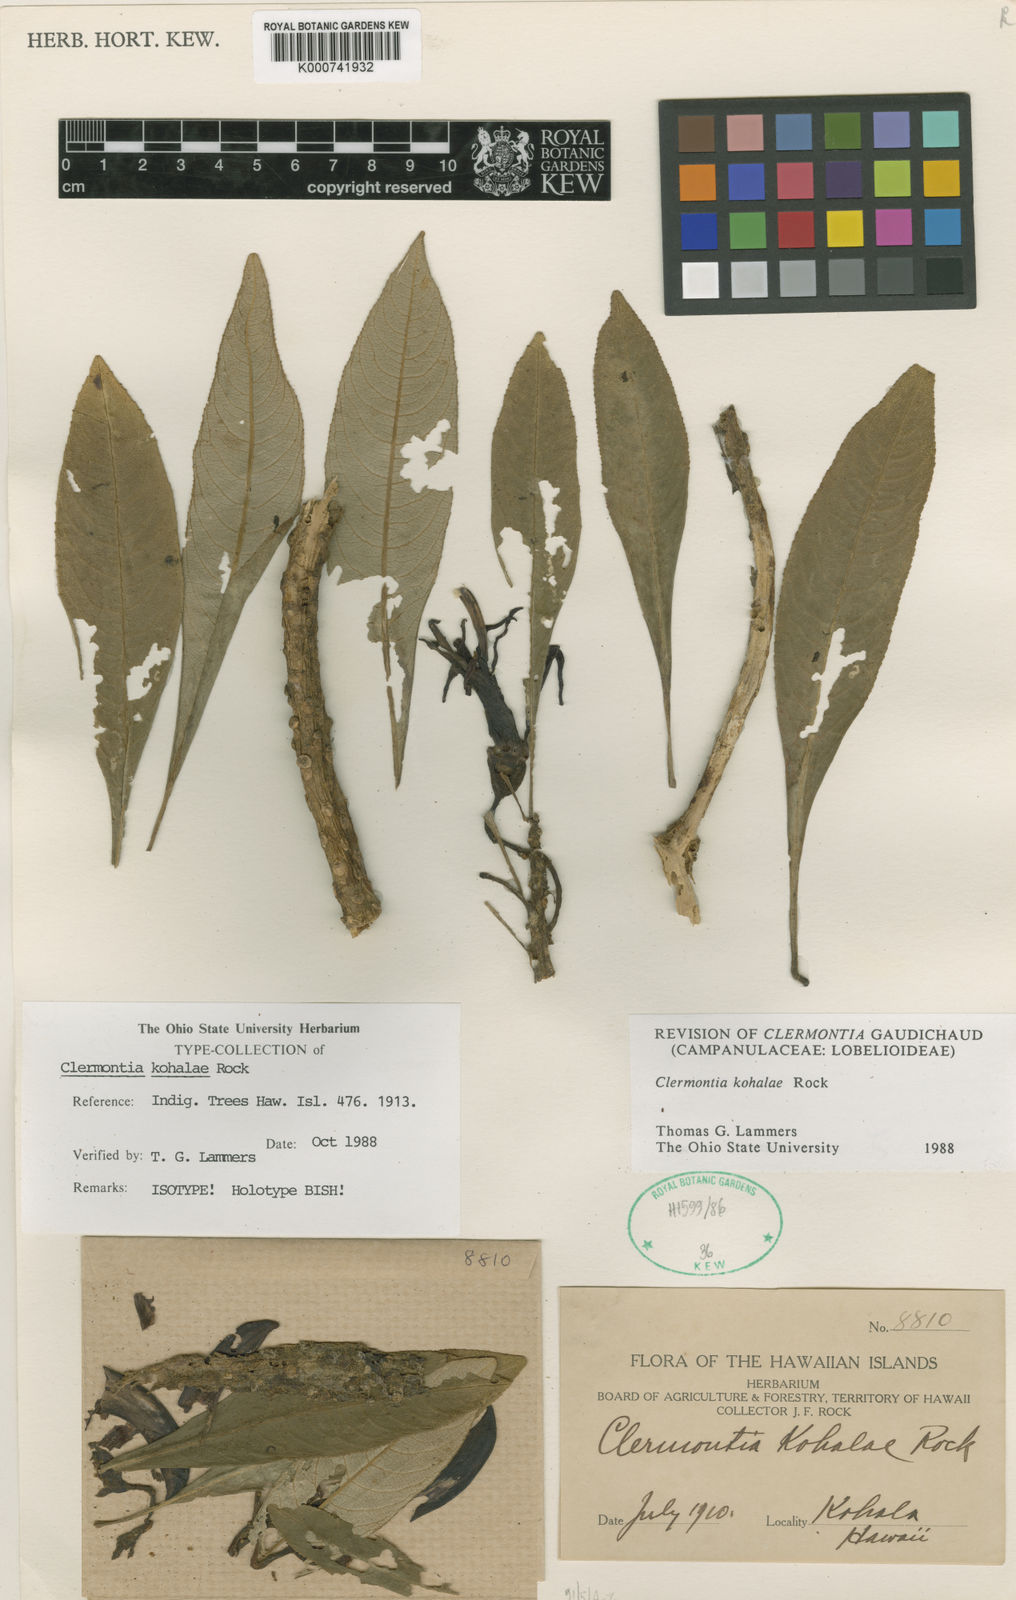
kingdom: Plantae
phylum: Tracheophyta
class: Magnoliopsida
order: Asterales
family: Campanulaceae
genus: Clermontia
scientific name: Clermontia kohalae
